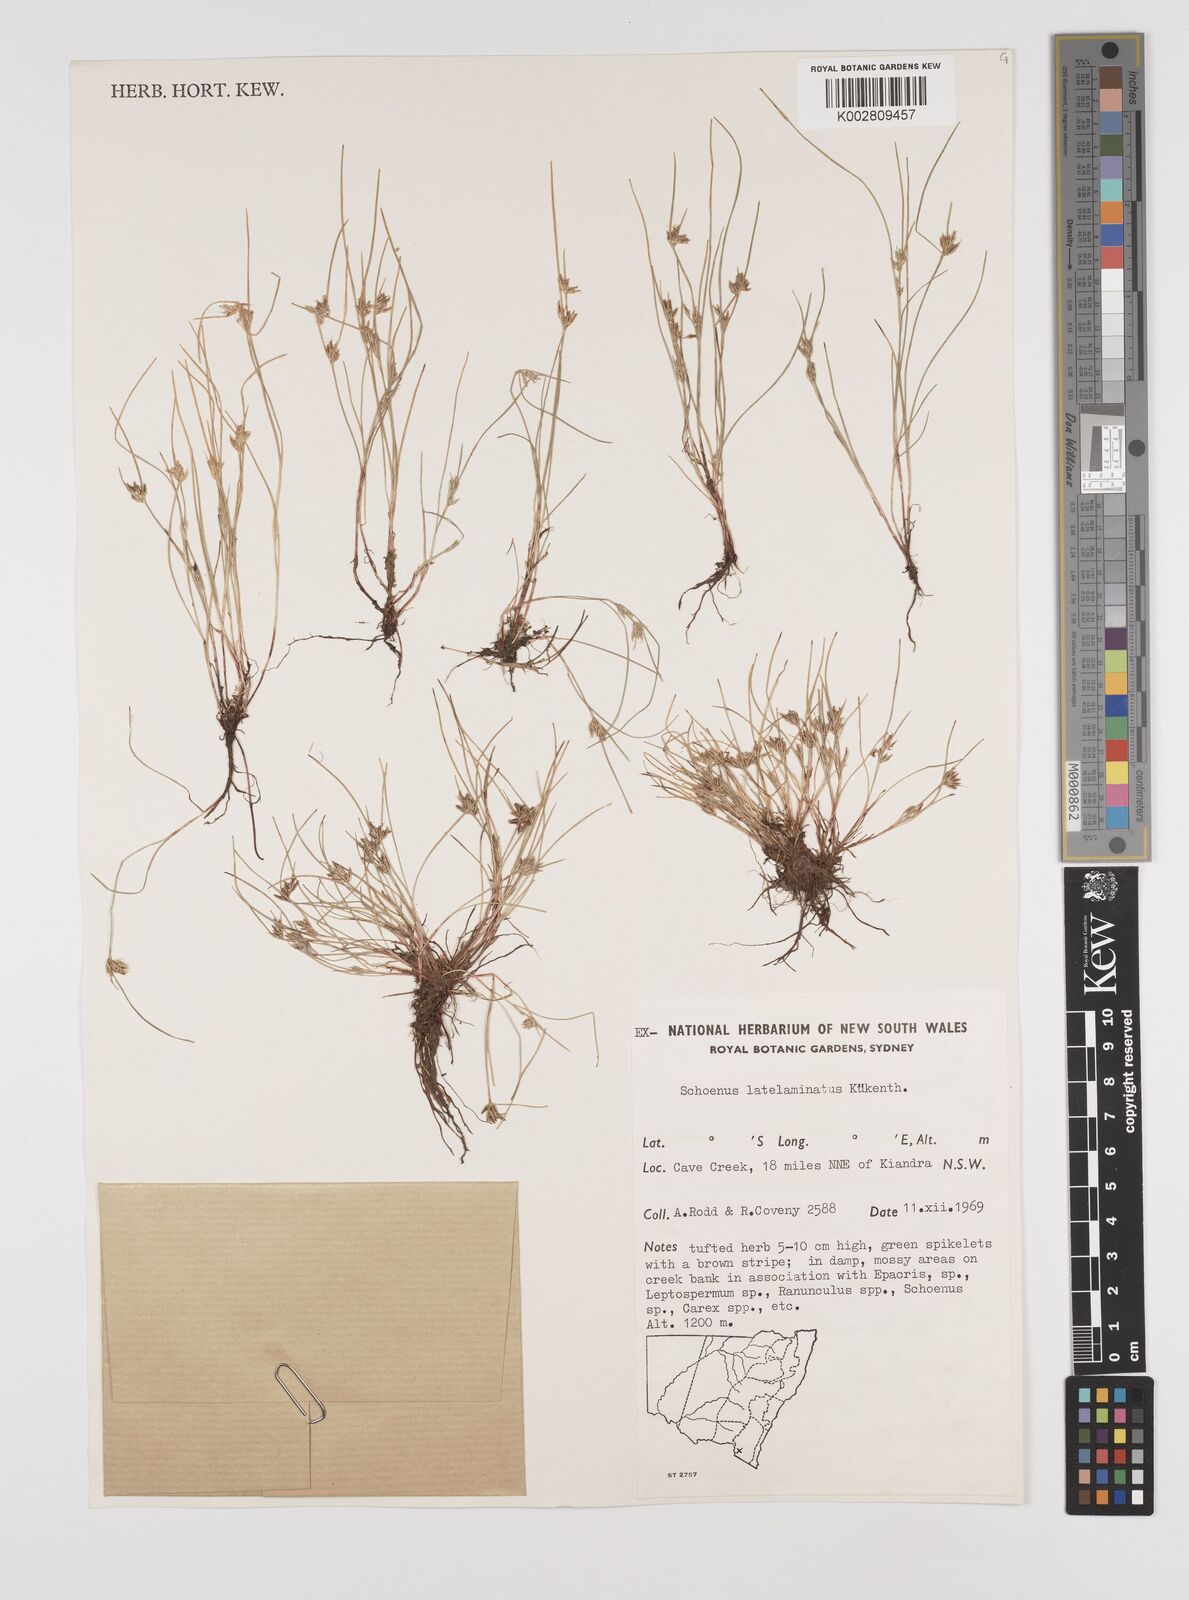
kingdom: Plantae
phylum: Tracheophyta
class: Liliopsida
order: Poales
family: Cyperaceae
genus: Schoenus
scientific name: Schoenus latelaminatus
